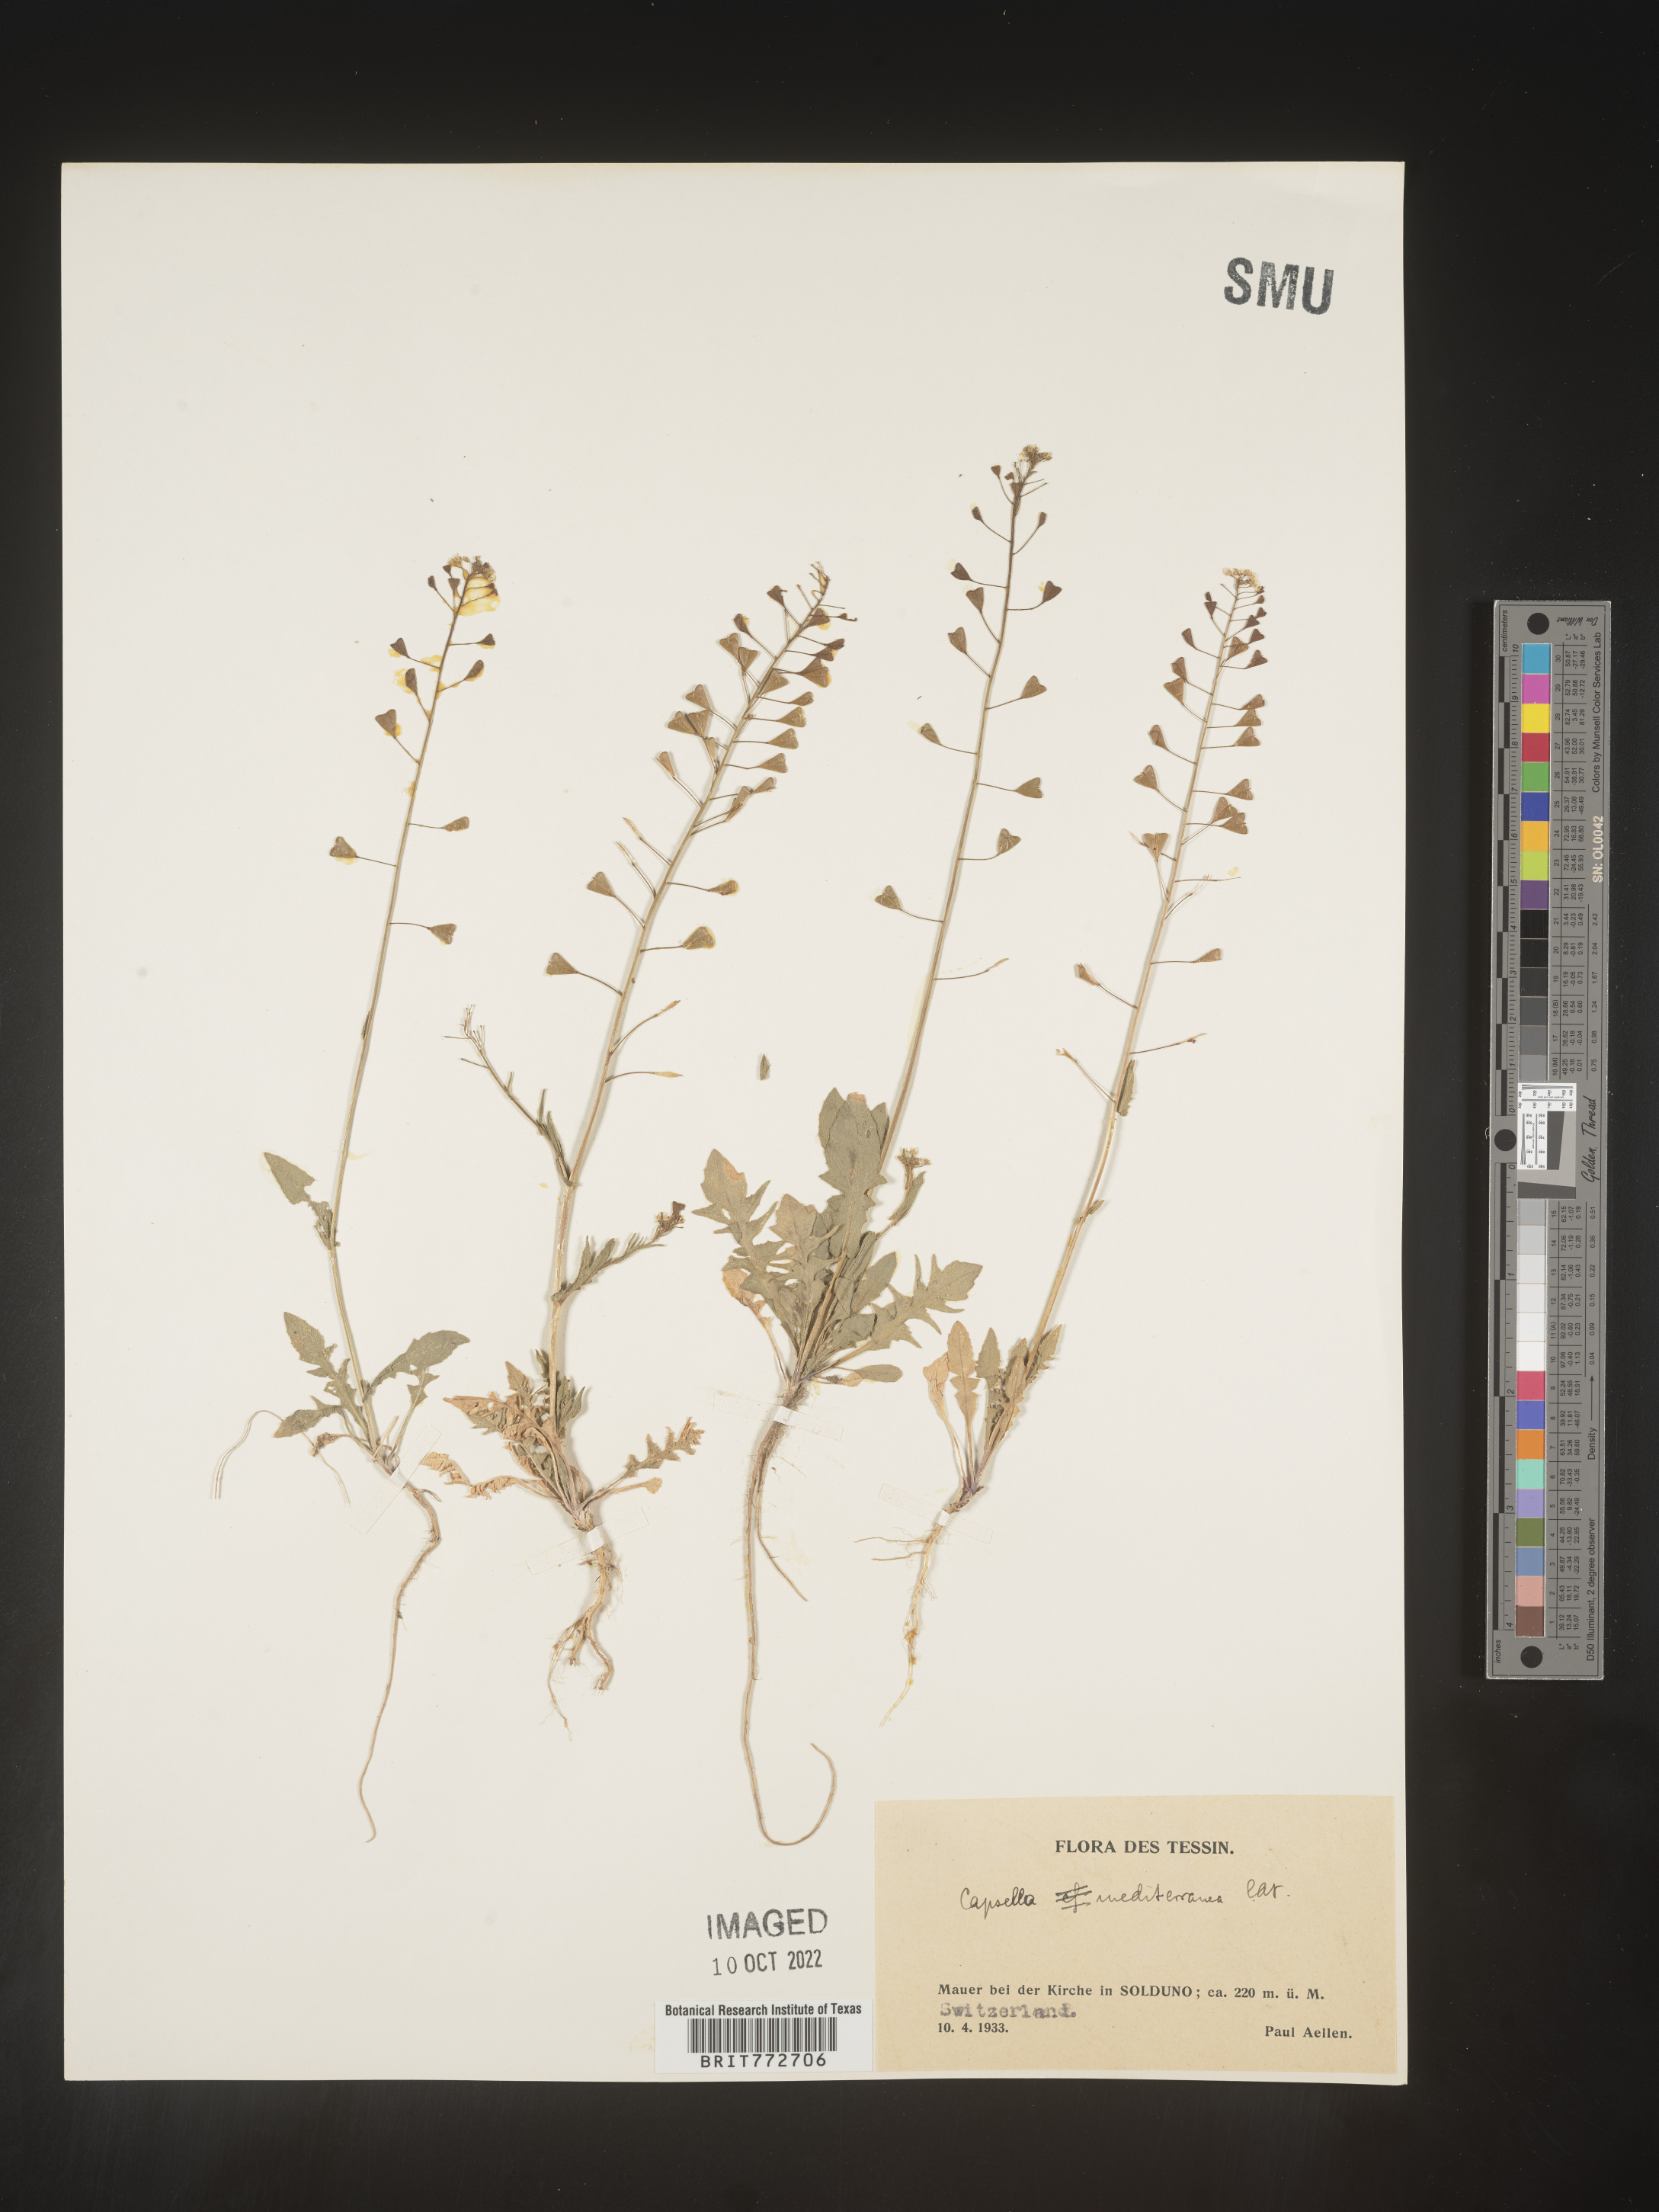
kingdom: Plantae
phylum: Tracheophyta
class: Magnoliopsida
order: Brassicales
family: Brassicaceae
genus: Capsella
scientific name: Capsella
